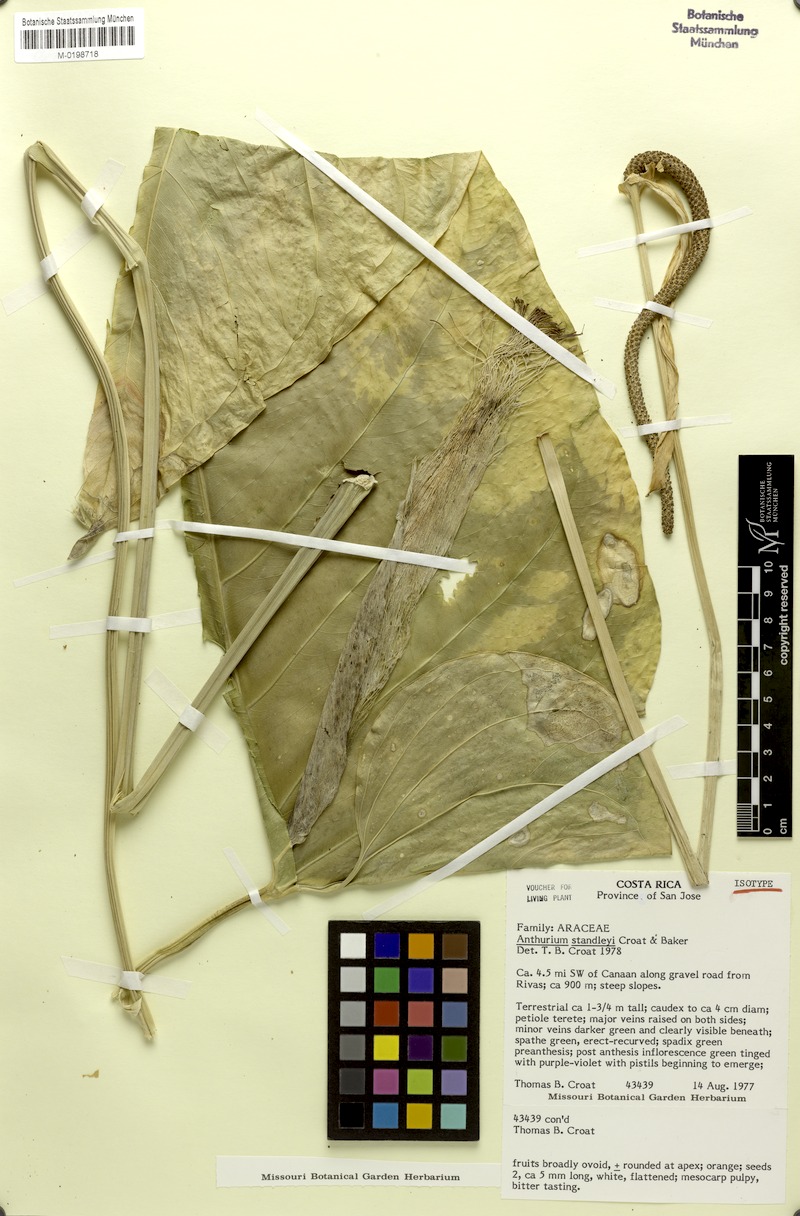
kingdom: Plantae
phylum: Tracheophyta
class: Liliopsida
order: Alismatales
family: Araceae
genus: Anthurium
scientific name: Anthurium standleyi
